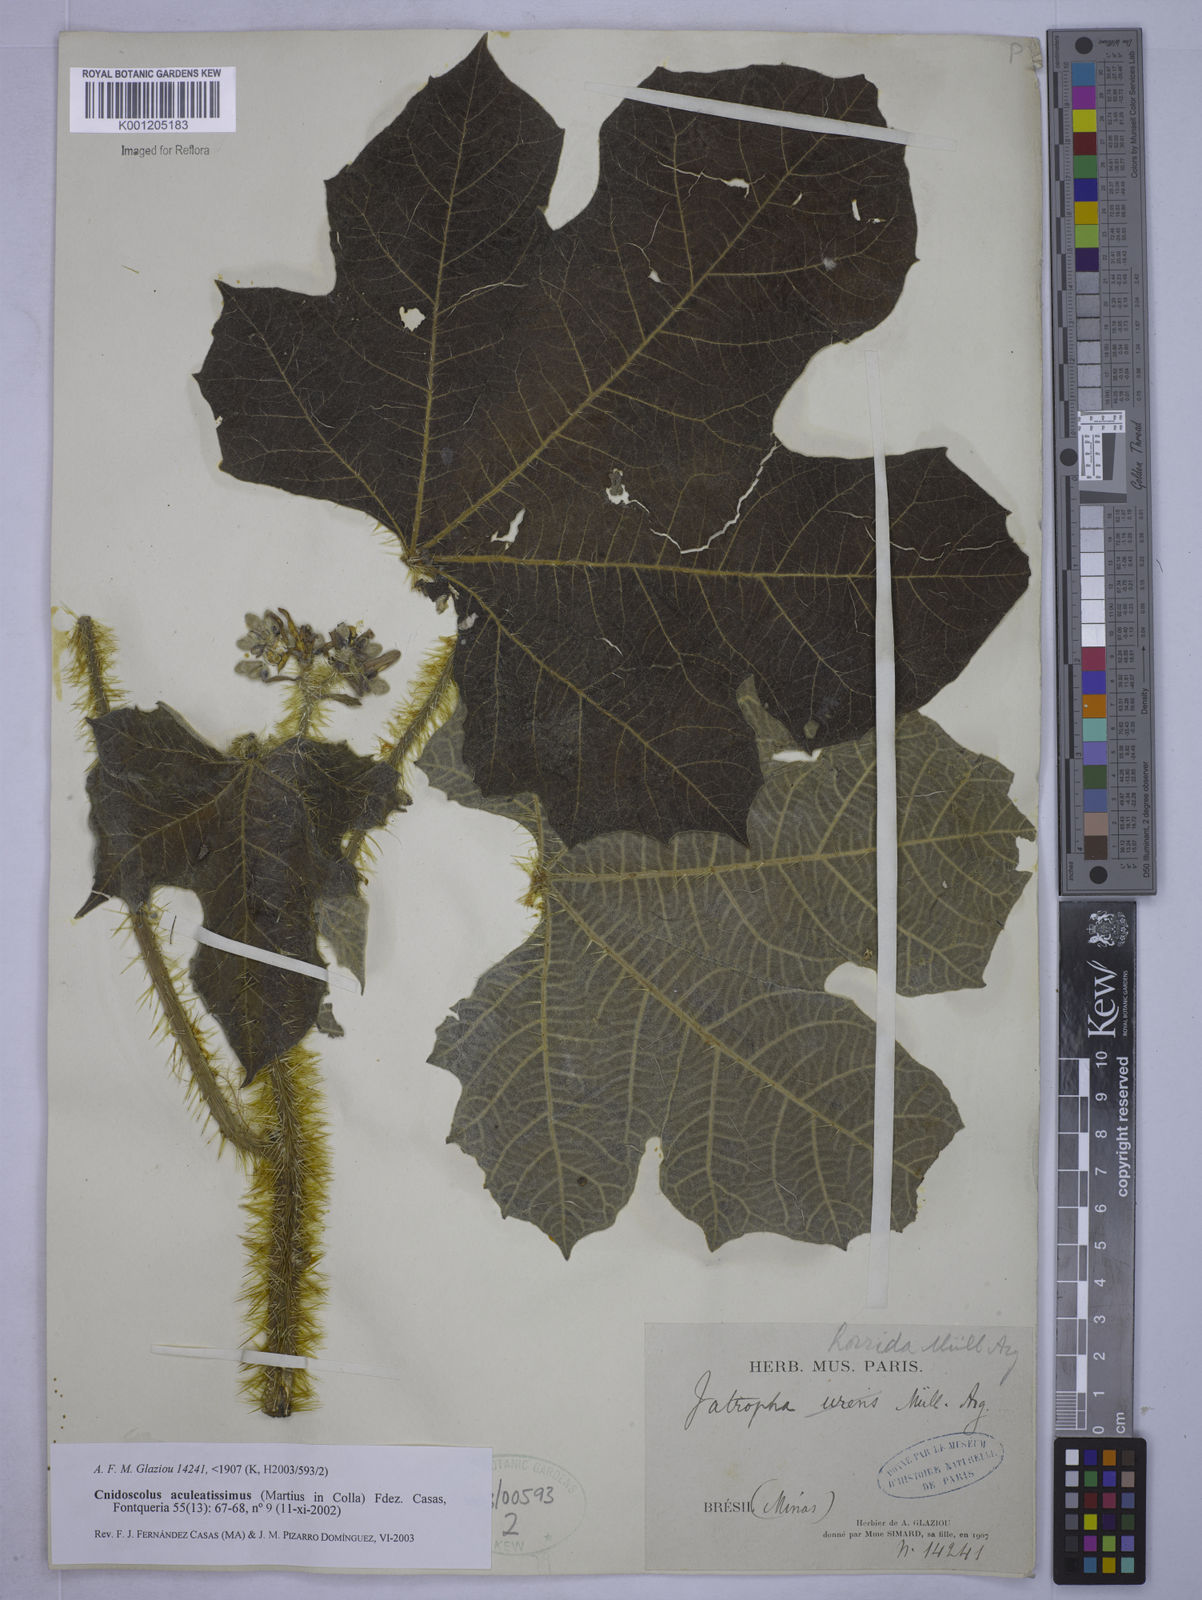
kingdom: Plantae
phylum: Tracheophyta
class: Magnoliopsida
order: Malpighiales
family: Euphorbiaceae
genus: Cnidoscolus
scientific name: Cnidoscolus aculeatissimus
